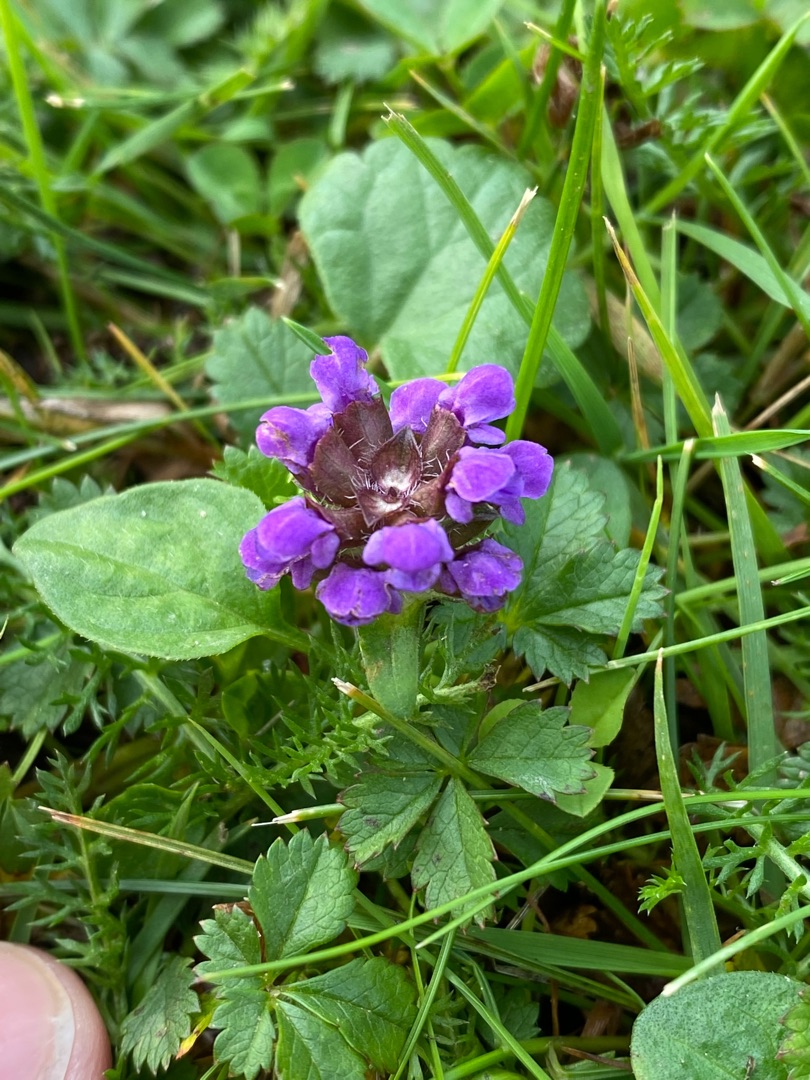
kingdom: Plantae
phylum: Tracheophyta
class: Magnoliopsida
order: Lamiales
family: Lamiaceae
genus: Prunella
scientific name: Prunella vulgaris
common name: Almindelig brunelle
